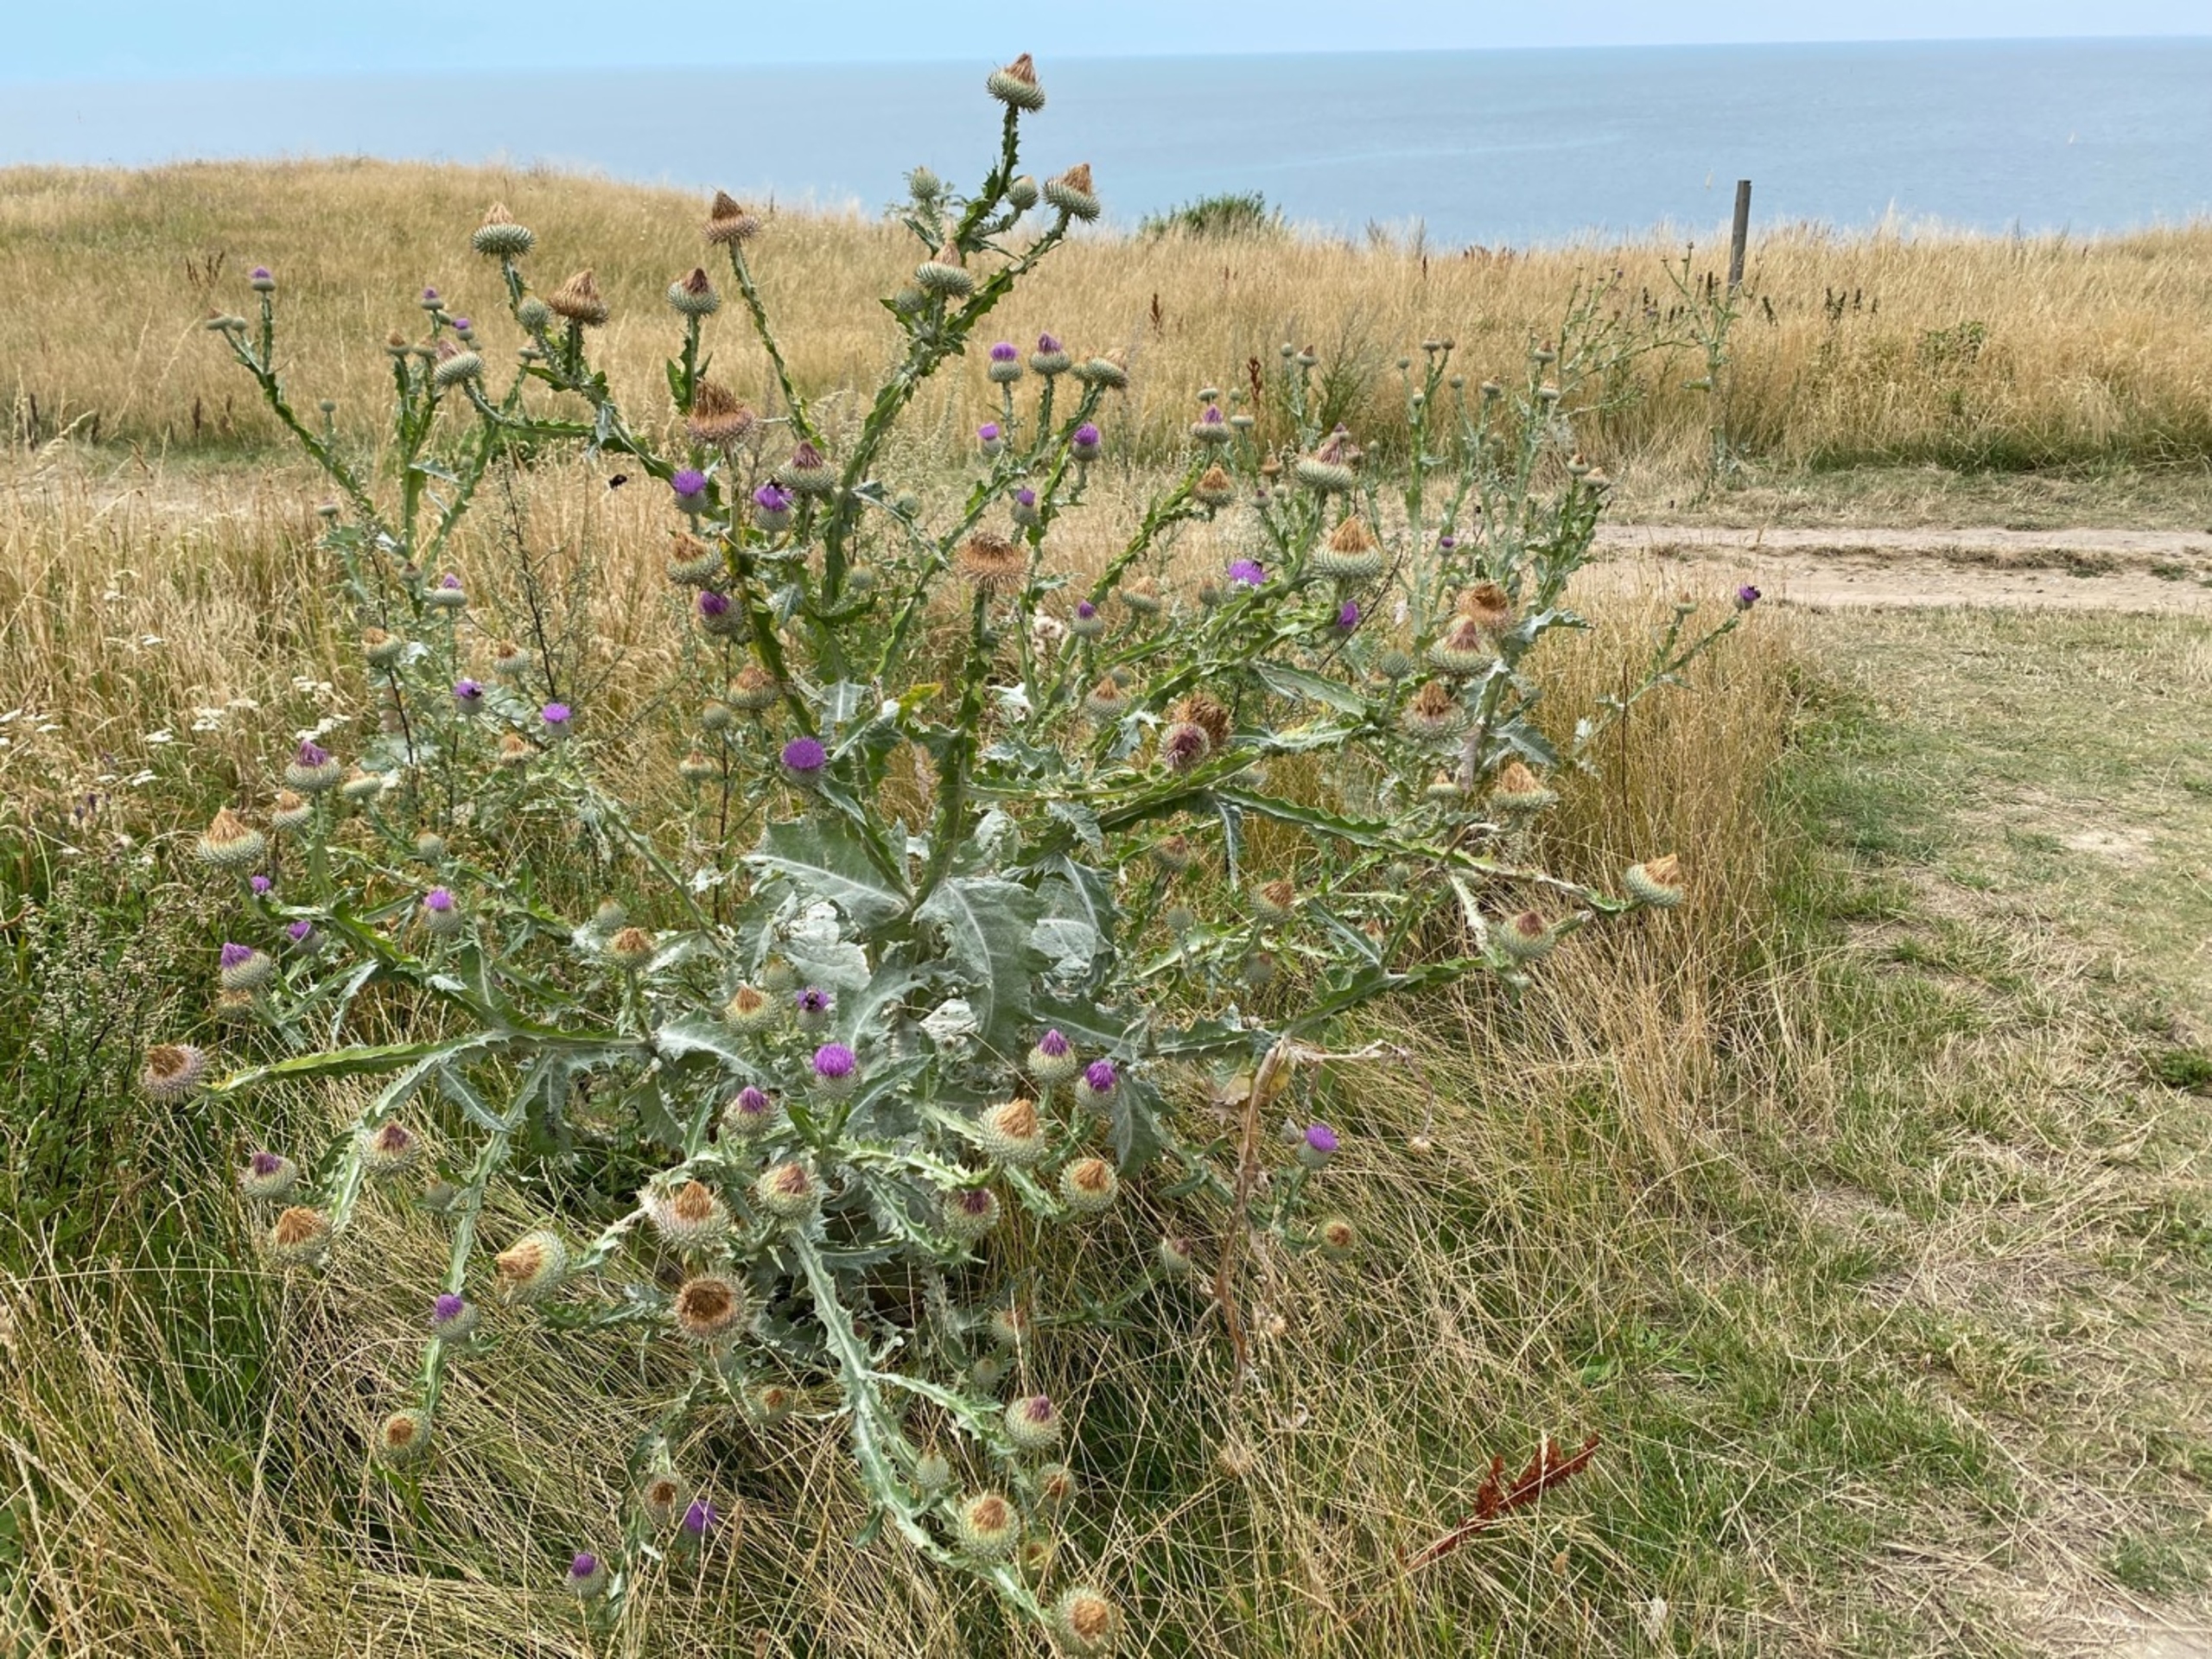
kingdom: Plantae
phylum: Tracheophyta
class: Magnoliopsida
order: Asterales
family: Asteraceae
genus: Onopordum
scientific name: Onopordum acanthium
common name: Æselfoder
